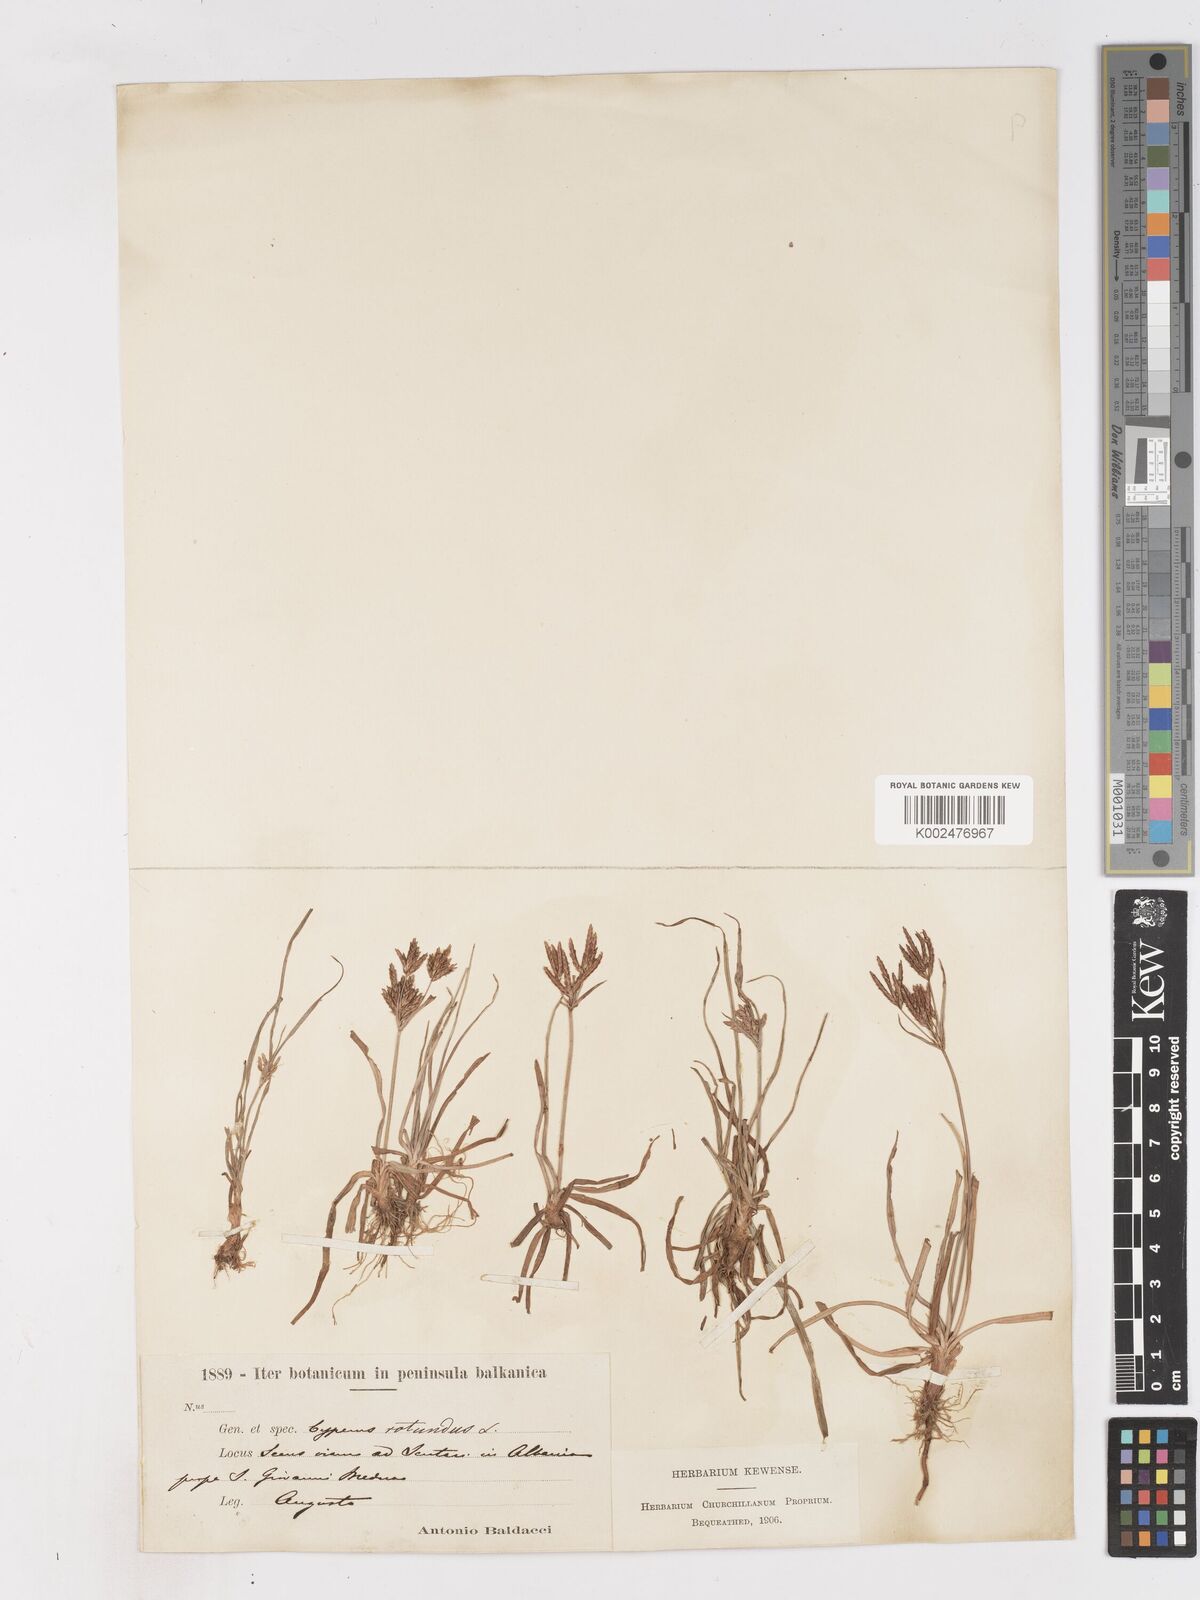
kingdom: Plantae
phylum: Tracheophyta
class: Liliopsida
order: Poales
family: Cyperaceae
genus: Cyperus
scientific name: Cyperus rotundus
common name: Nutgrass
